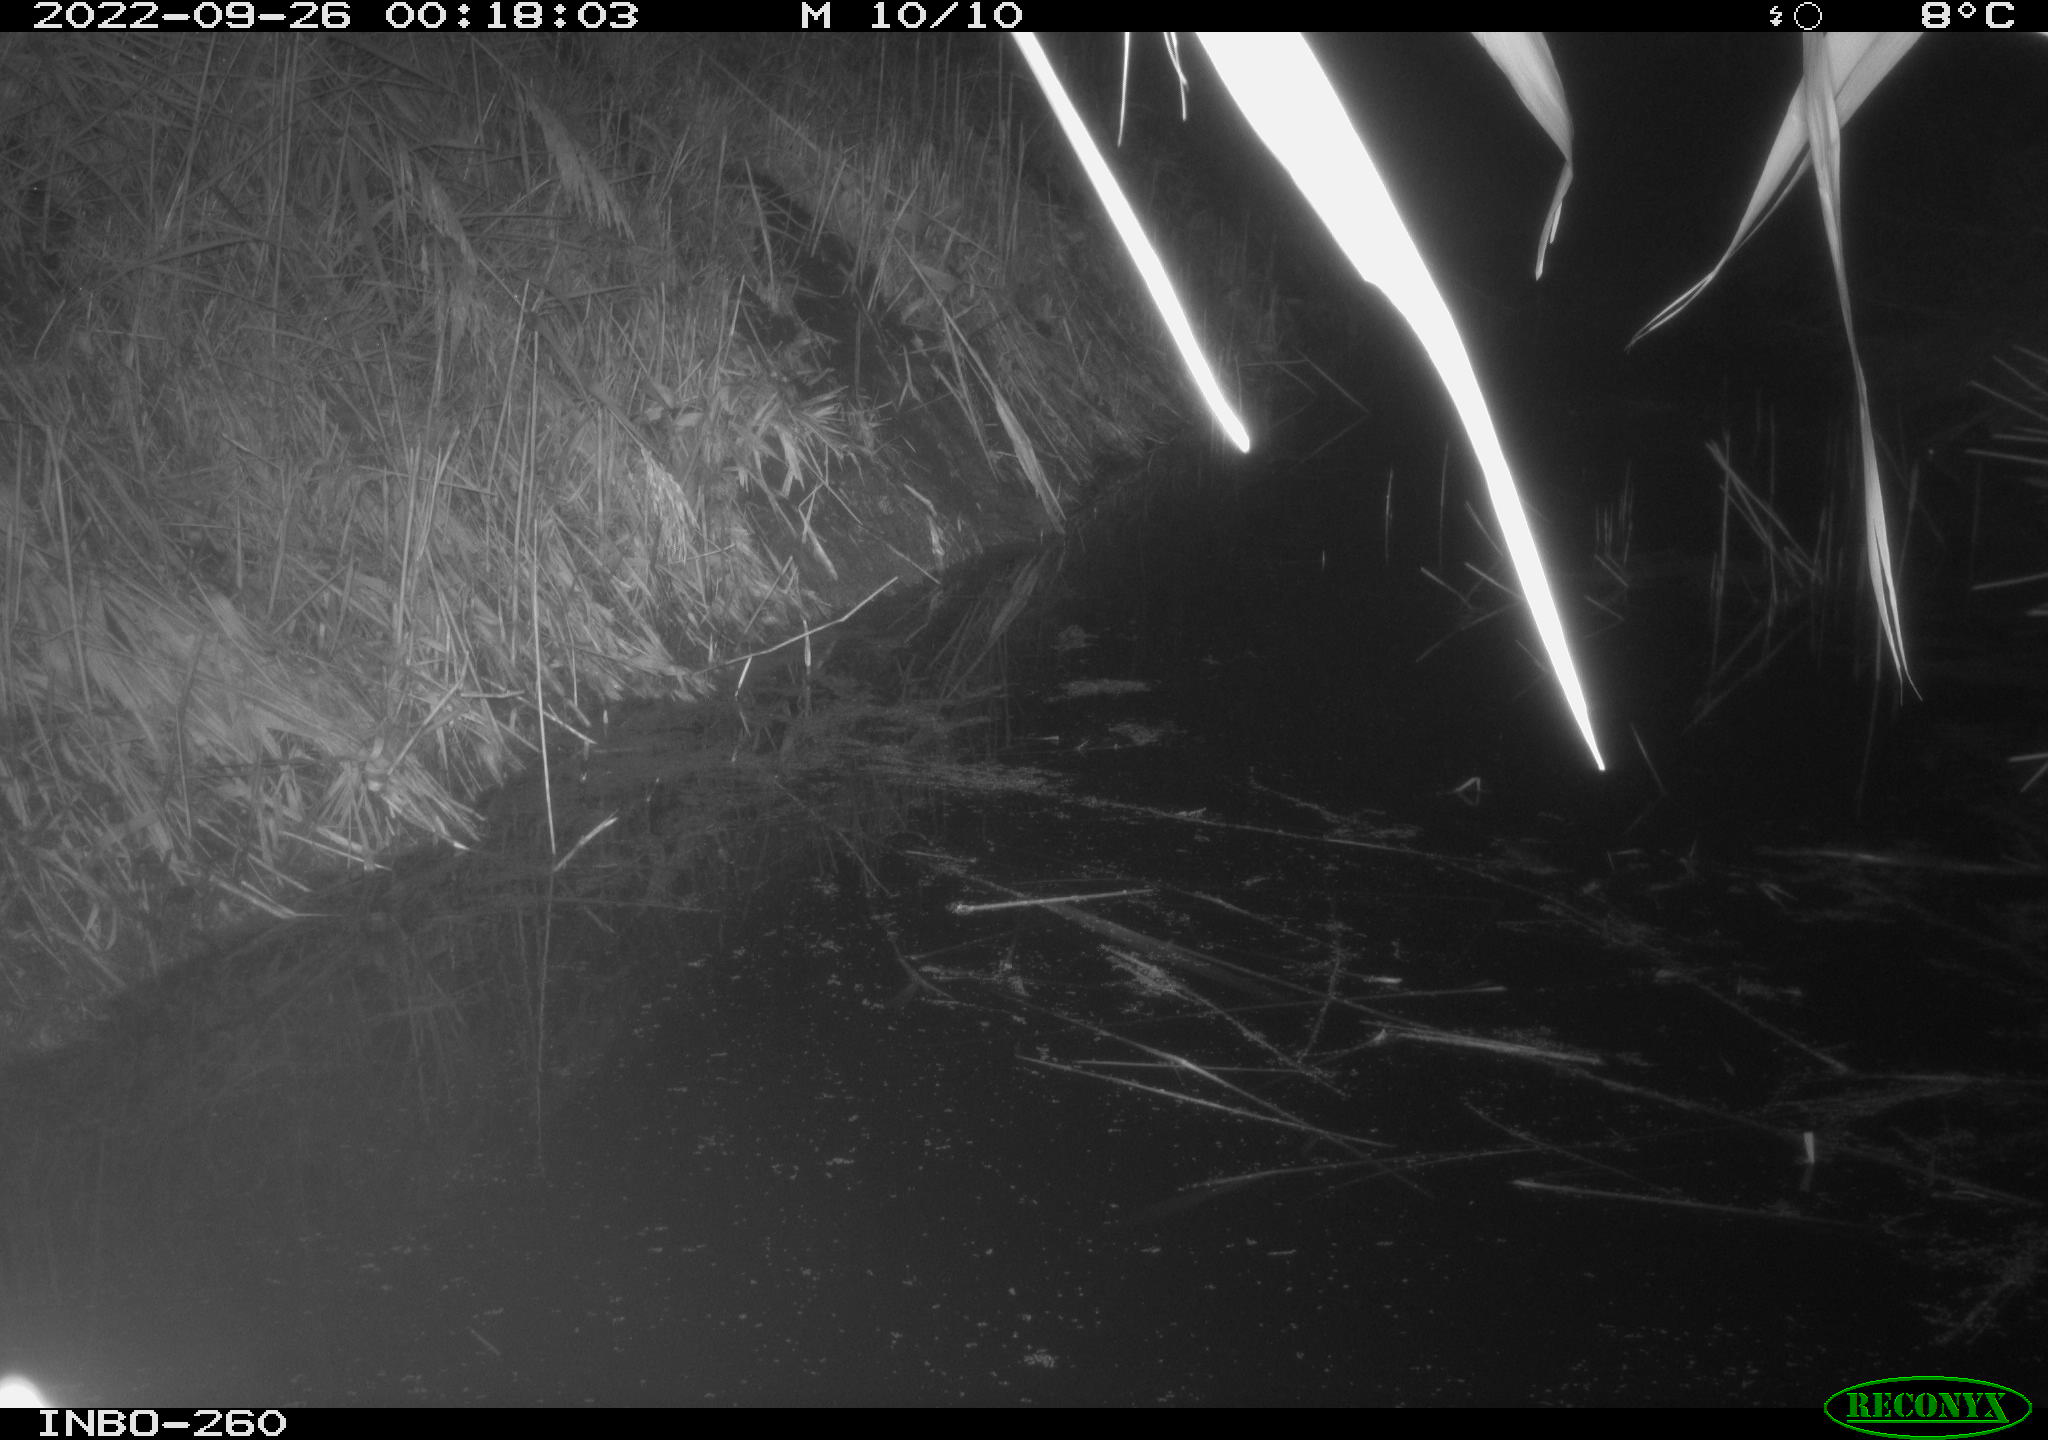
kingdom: Animalia
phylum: Chordata
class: Mammalia
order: Rodentia
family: Muridae
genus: Rattus
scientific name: Rattus norvegicus
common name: Brown rat
